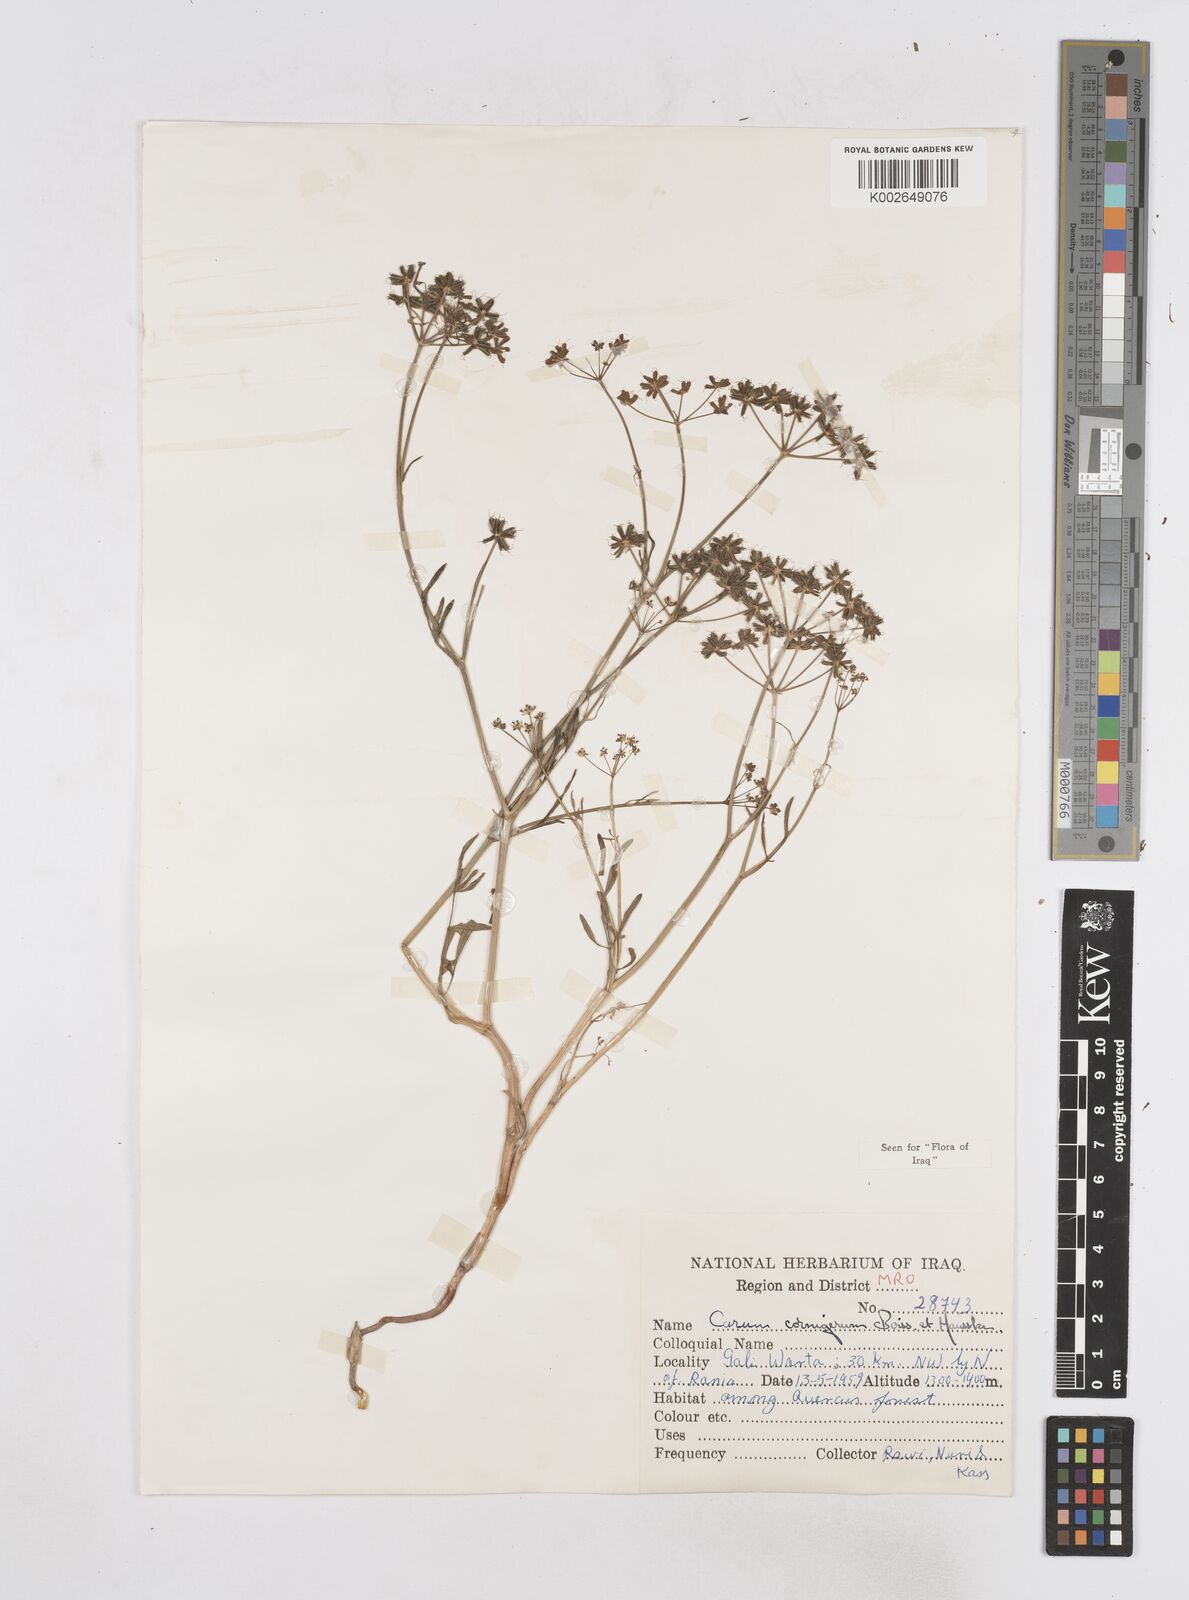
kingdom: Plantae
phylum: Tracheophyta
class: Magnoliopsida
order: Apiales
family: Apiaceae
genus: Bunium
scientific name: Bunium cornigerum
